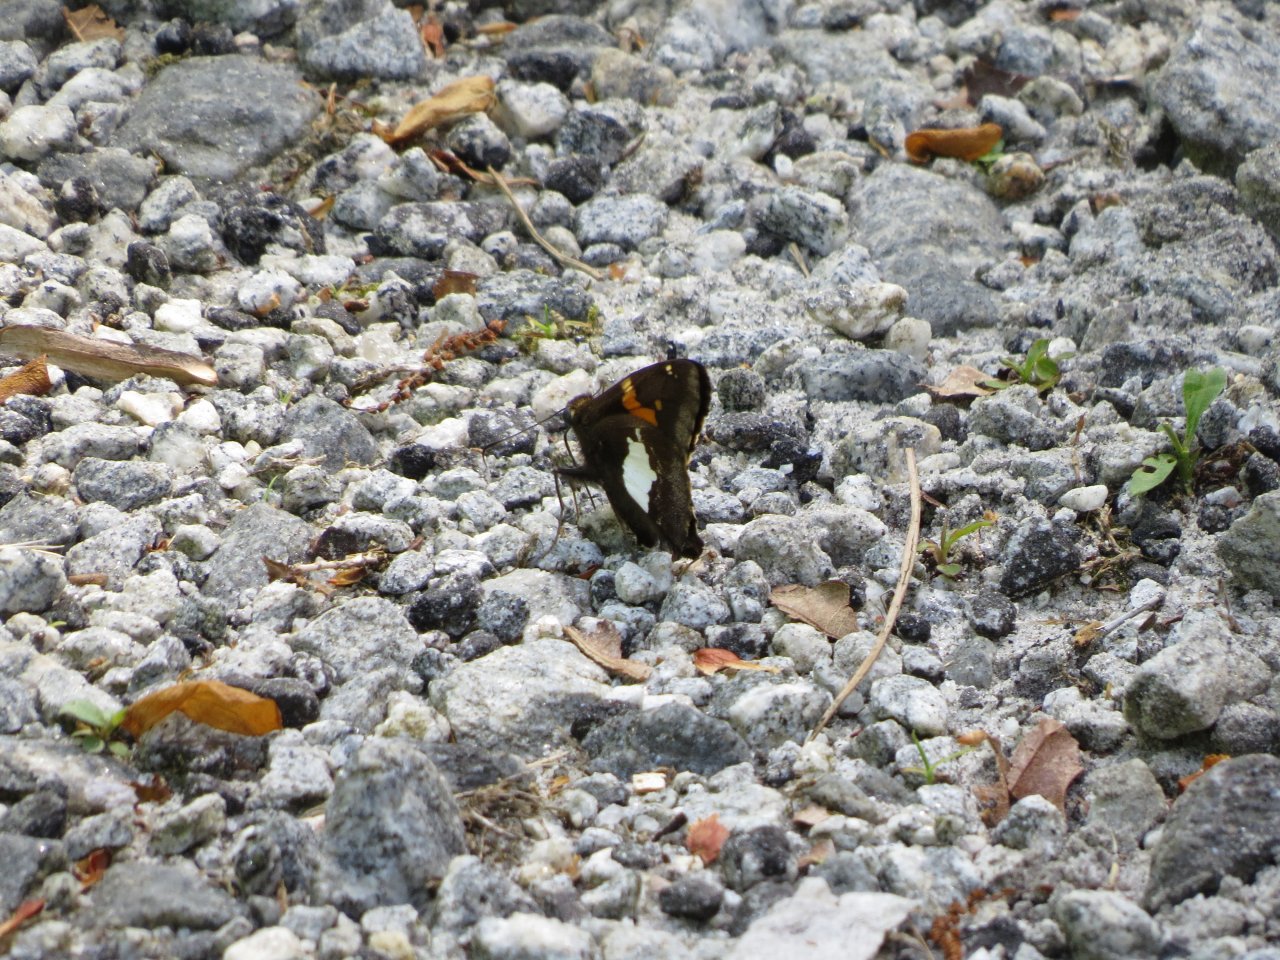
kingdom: Animalia
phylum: Arthropoda
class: Insecta
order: Lepidoptera
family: Hesperiidae
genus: Epargyreus
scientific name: Epargyreus clarus
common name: Silver-spotted Skipper
